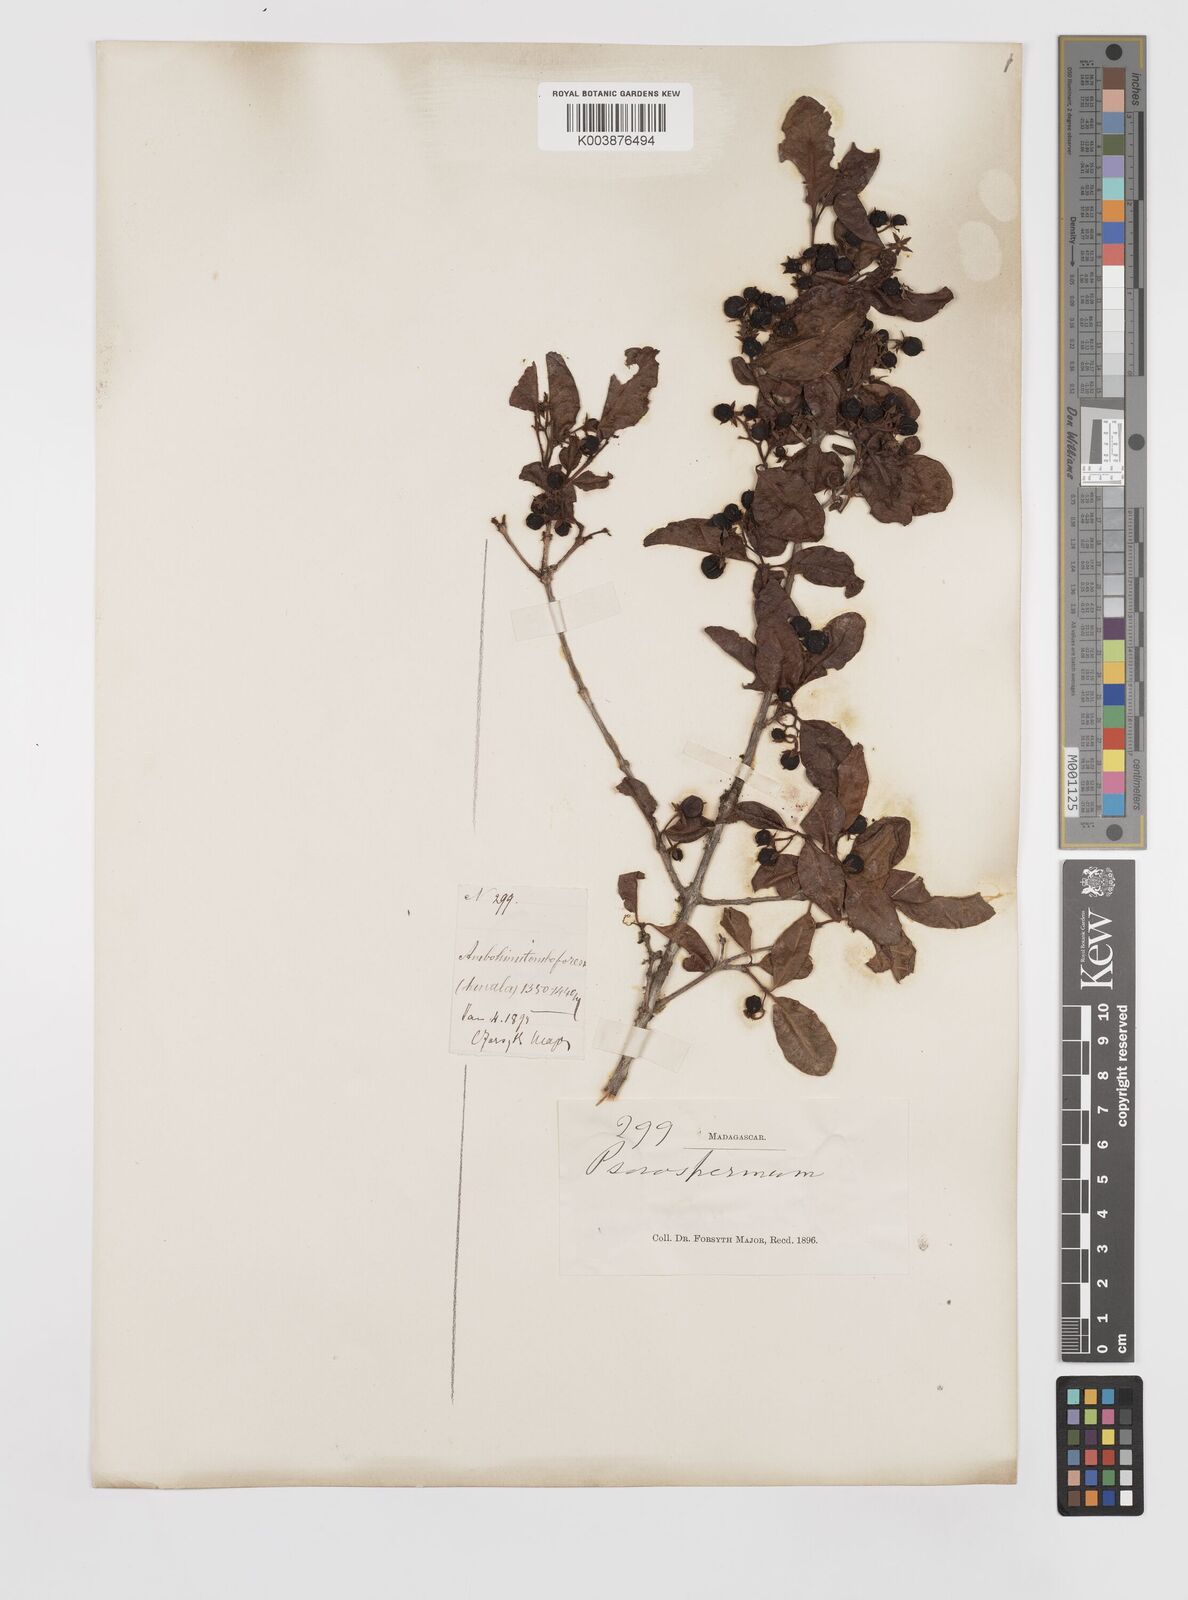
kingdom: Plantae
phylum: Tracheophyta
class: Magnoliopsida
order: Malpighiales
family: Hypericaceae
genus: Psorospermum
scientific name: Psorospermum
